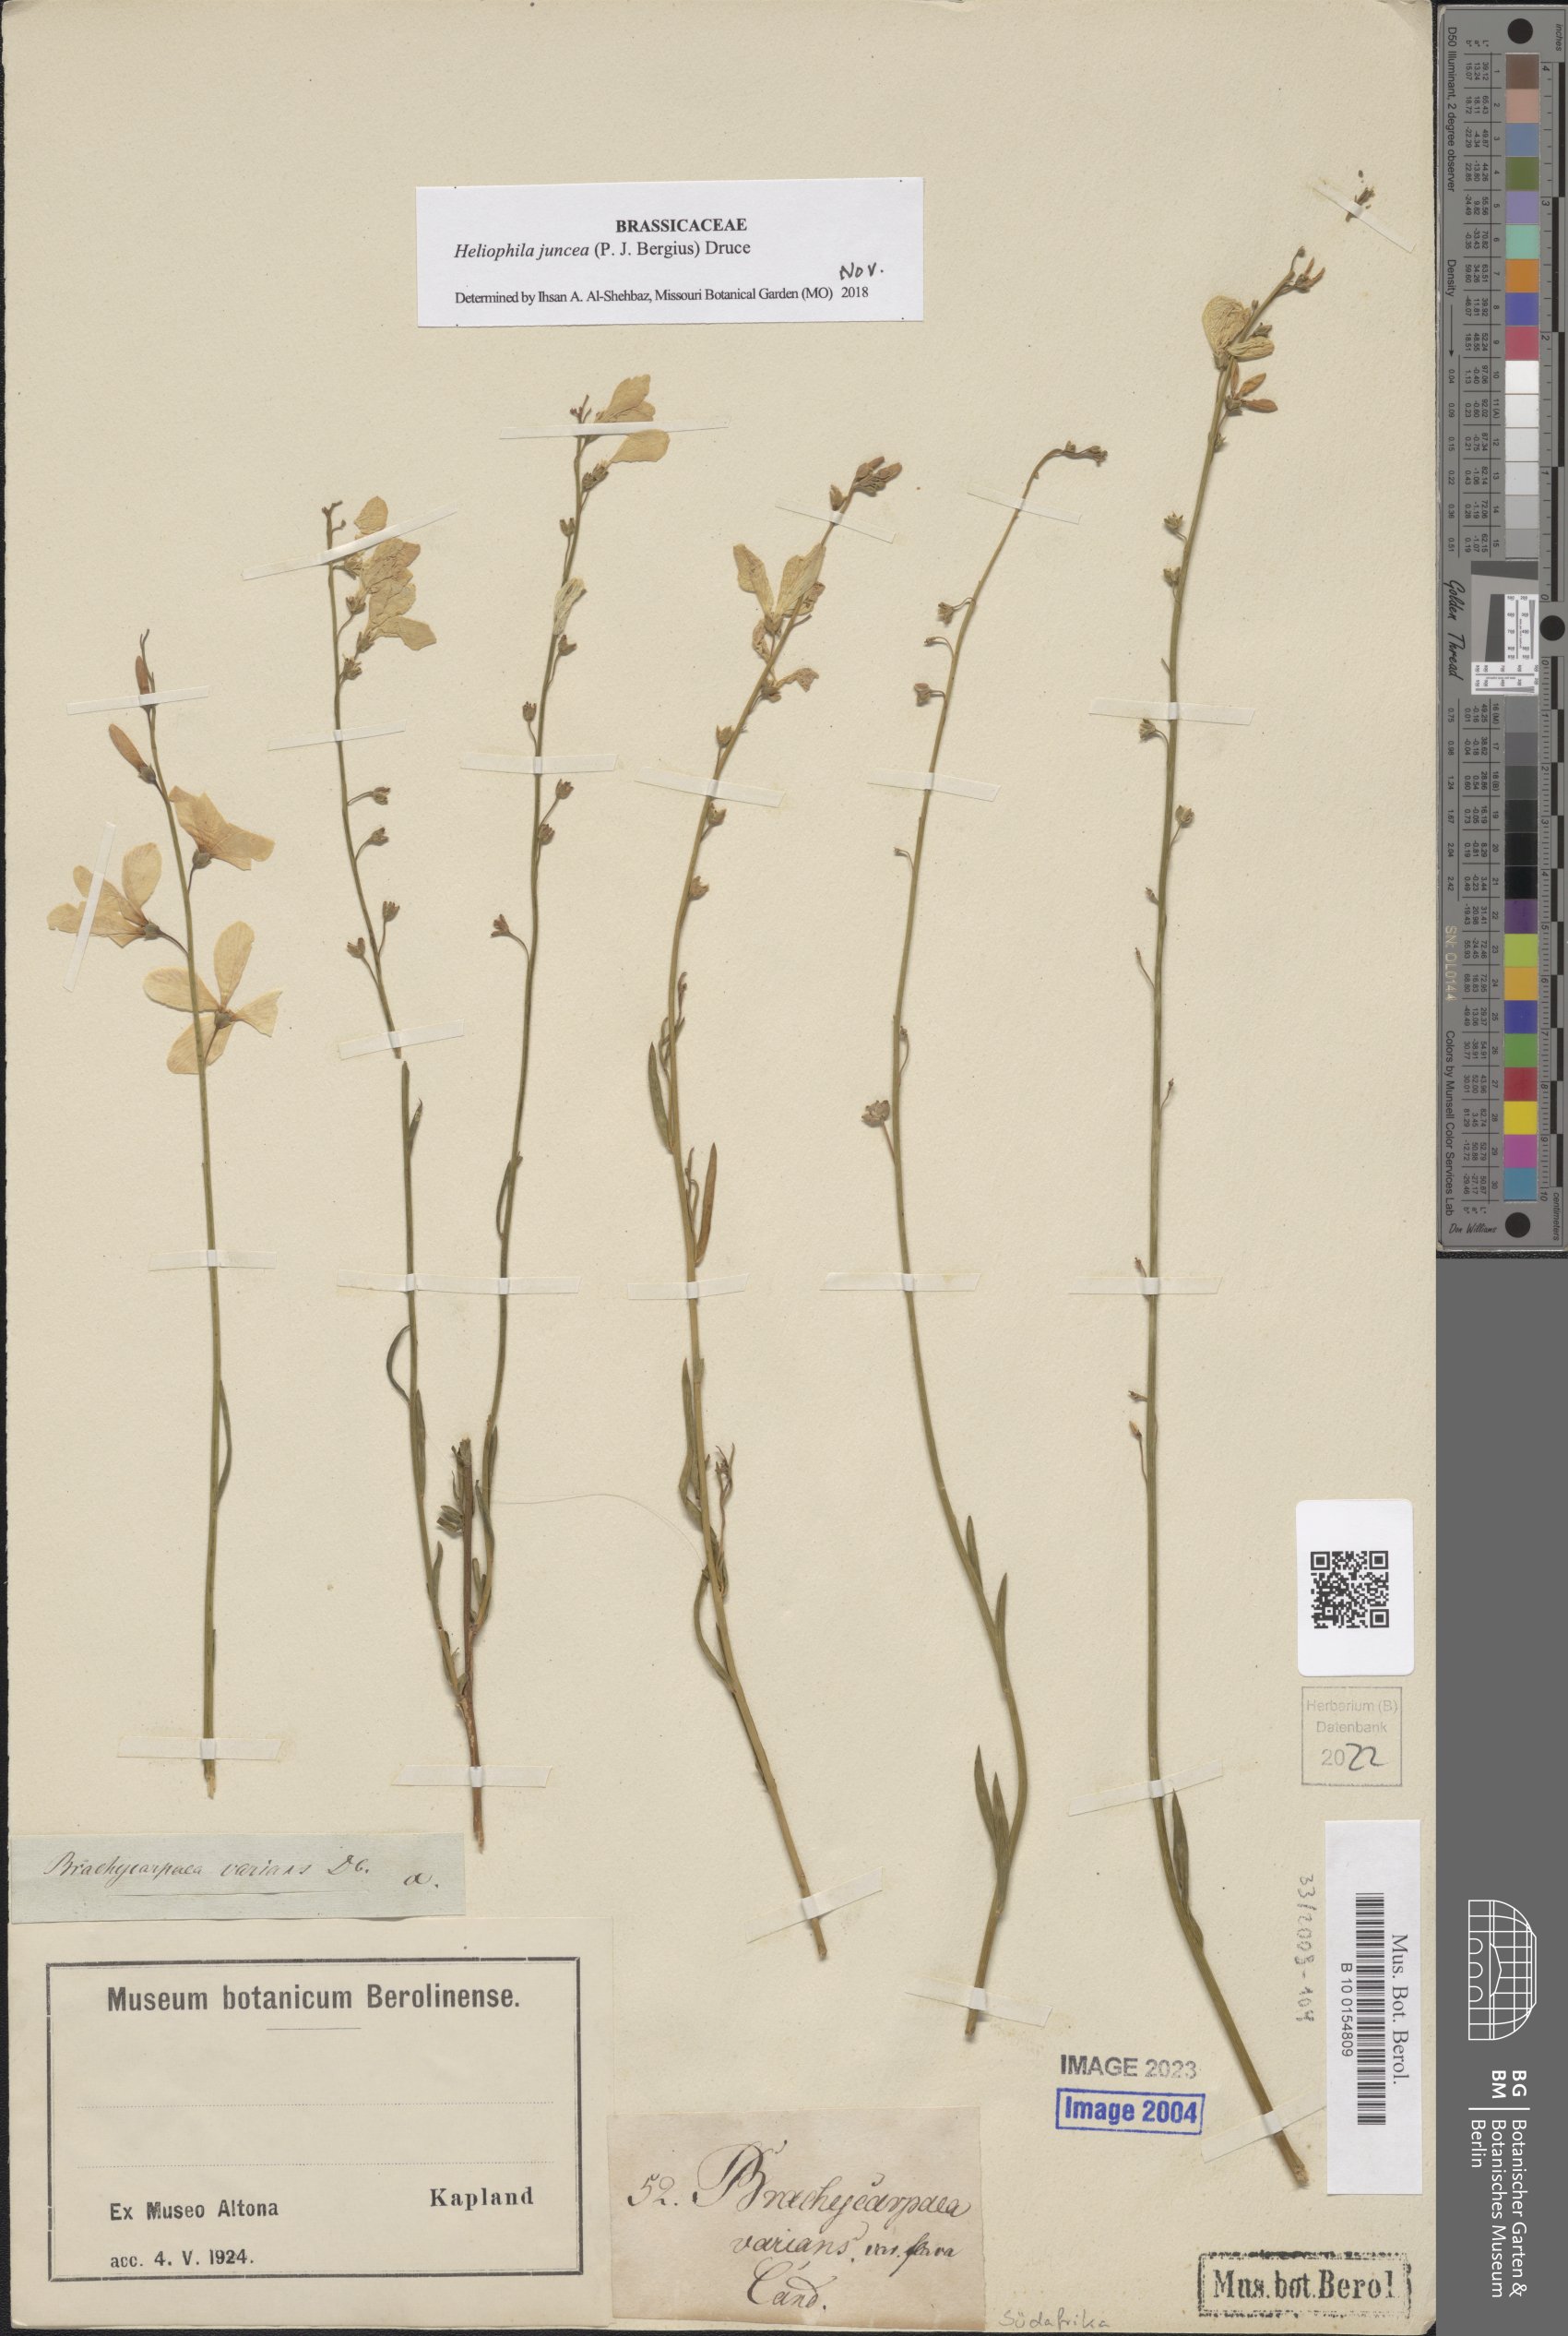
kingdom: Plantae
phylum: Tracheophyta
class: Magnoliopsida
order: Brassicales
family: Brassicaceae
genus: Heliophila
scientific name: Heliophila juncea
